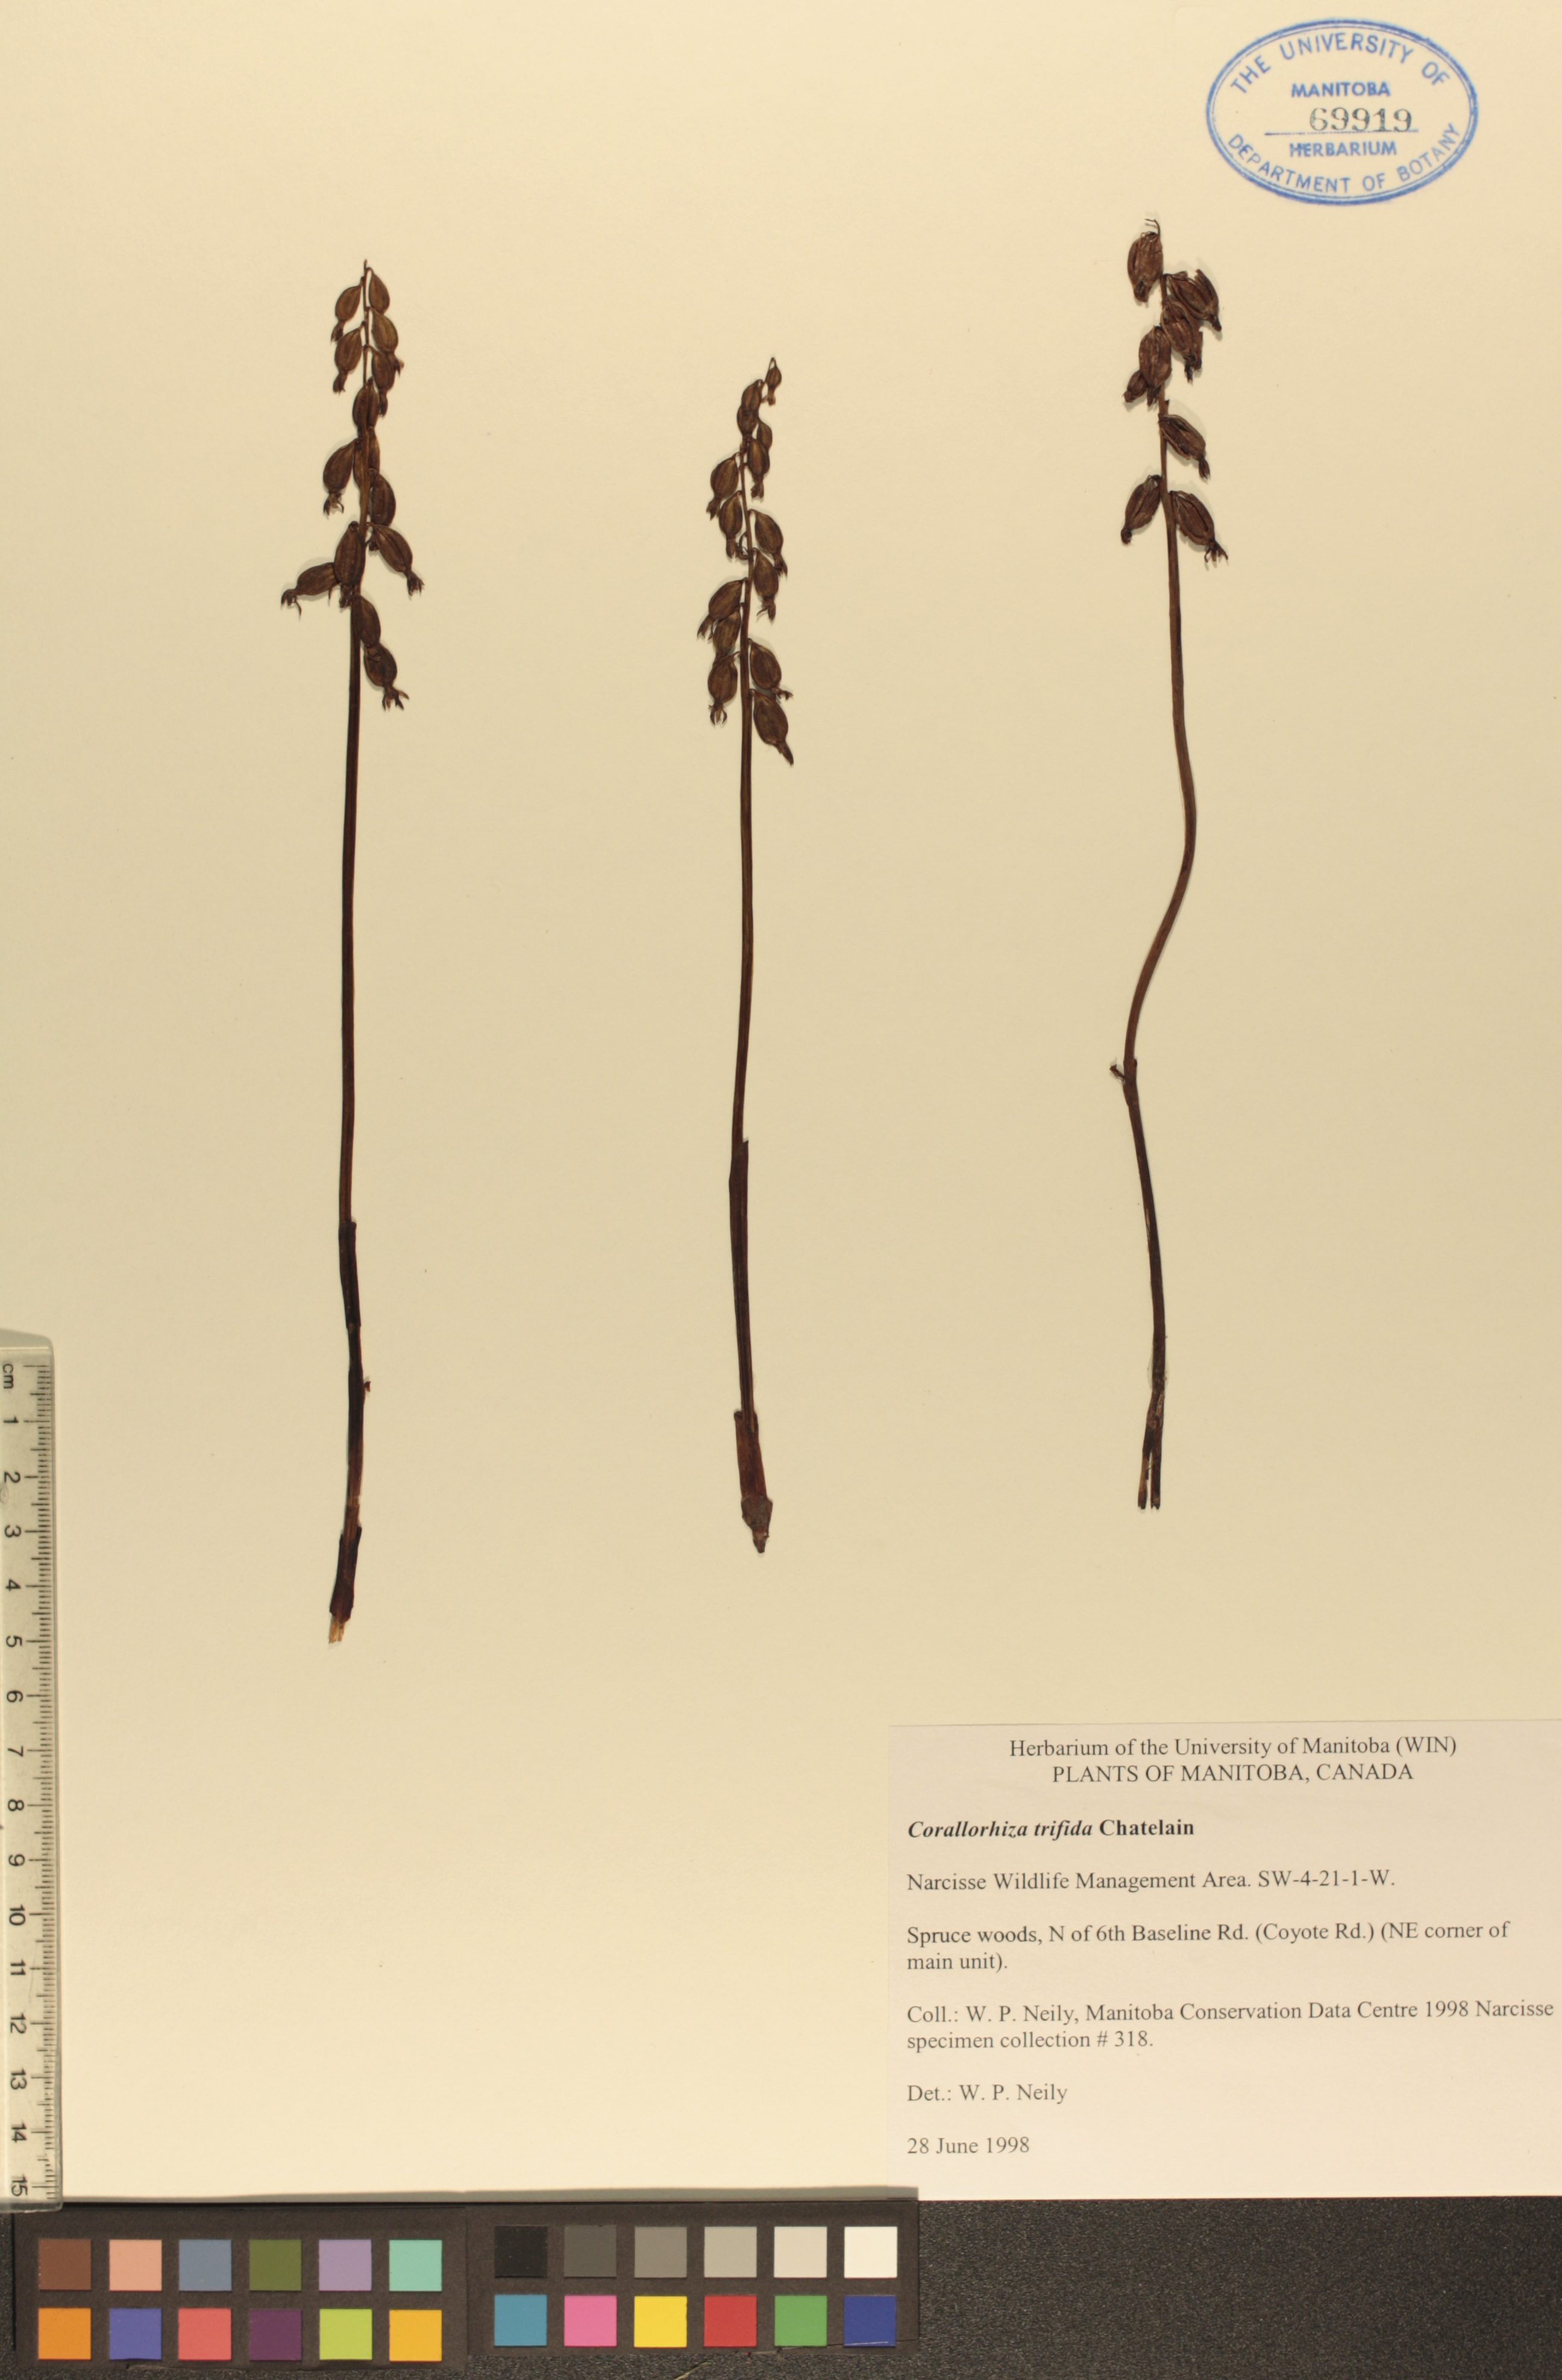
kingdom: Plantae
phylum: Tracheophyta
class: Liliopsida
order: Asparagales
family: Orchidaceae
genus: Corallorhiza
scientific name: Corallorhiza trifida
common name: Yellow coralroot
